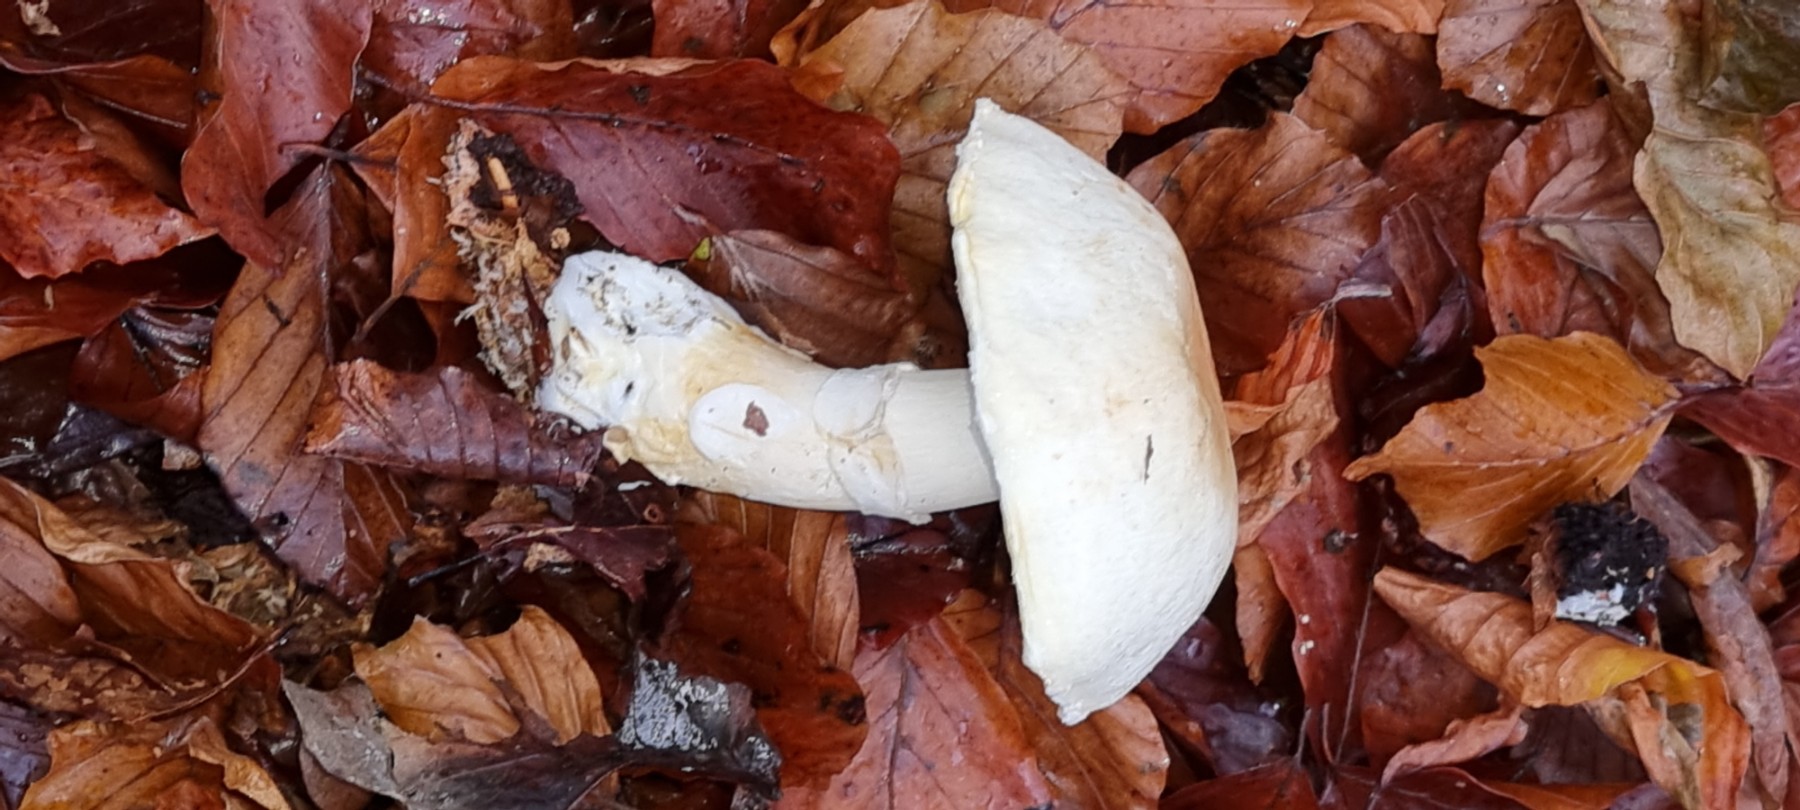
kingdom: Fungi
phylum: Basidiomycota
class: Agaricomycetes
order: Agaricales
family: Agaricaceae
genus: Agaricus
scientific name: Agaricus
